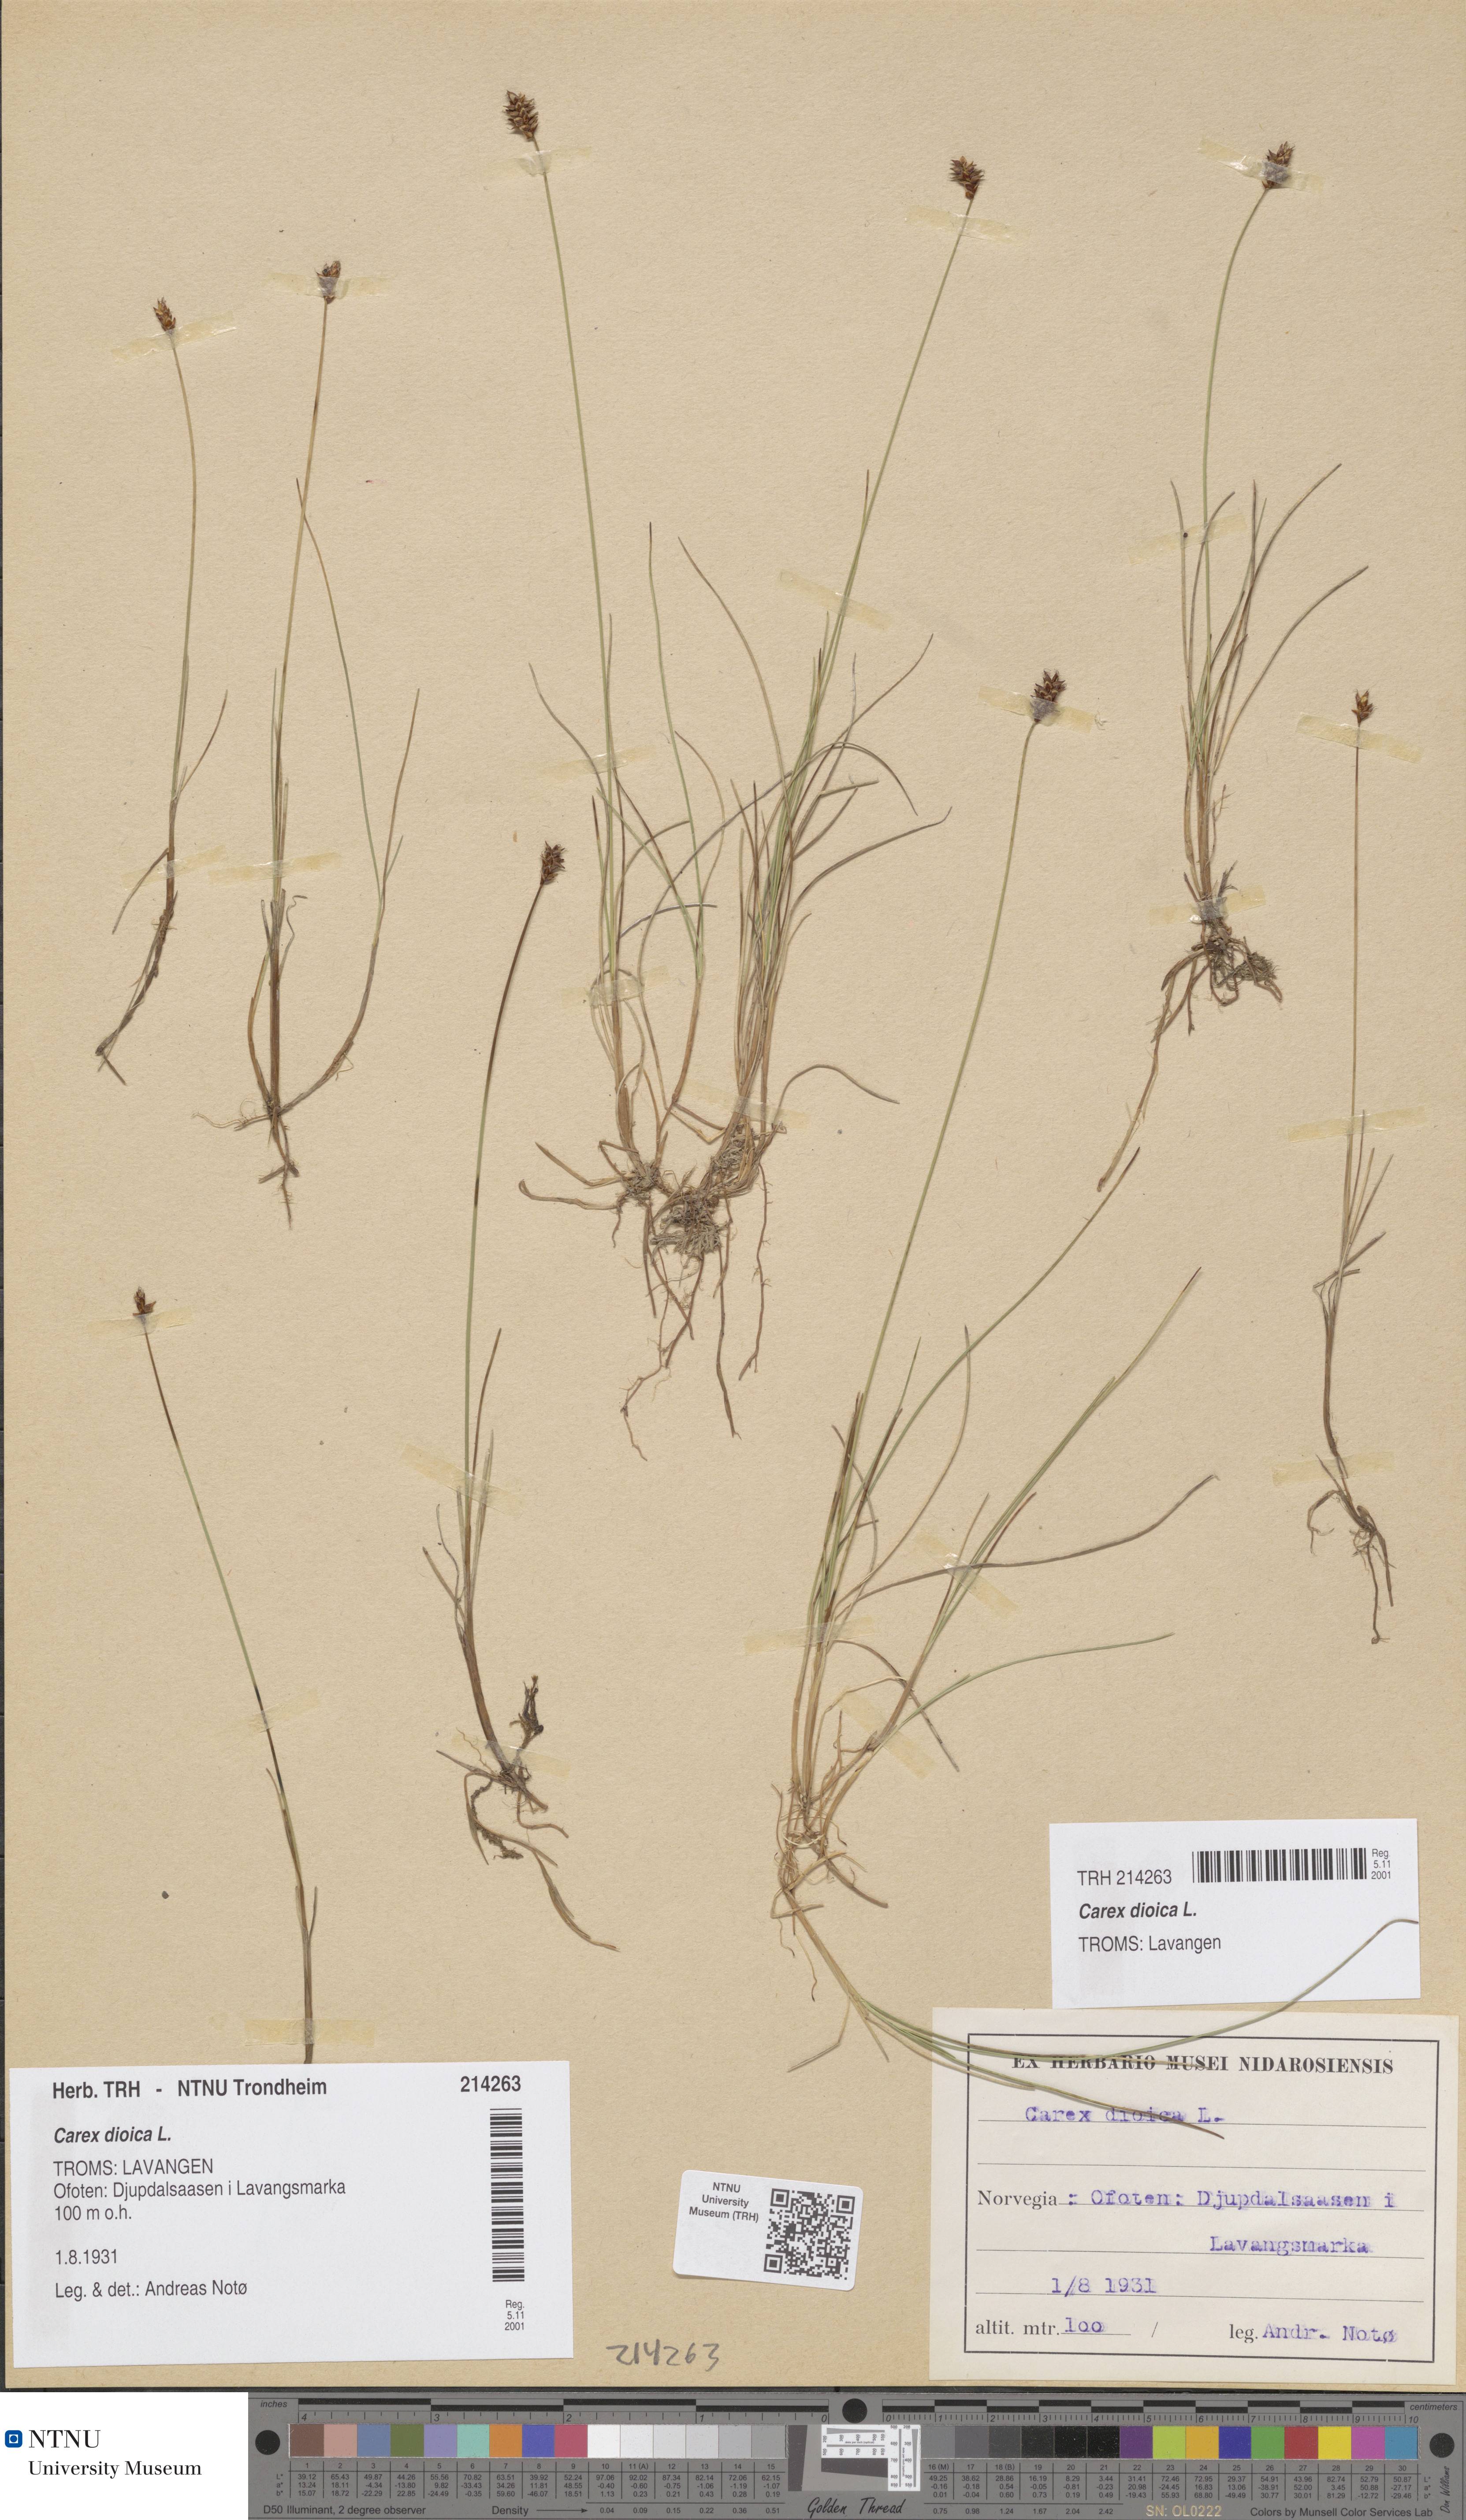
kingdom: Plantae
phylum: Tracheophyta
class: Liliopsida
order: Poales
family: Cyperaceae
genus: Carex
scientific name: Carex dioica
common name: Dioecious sedge
